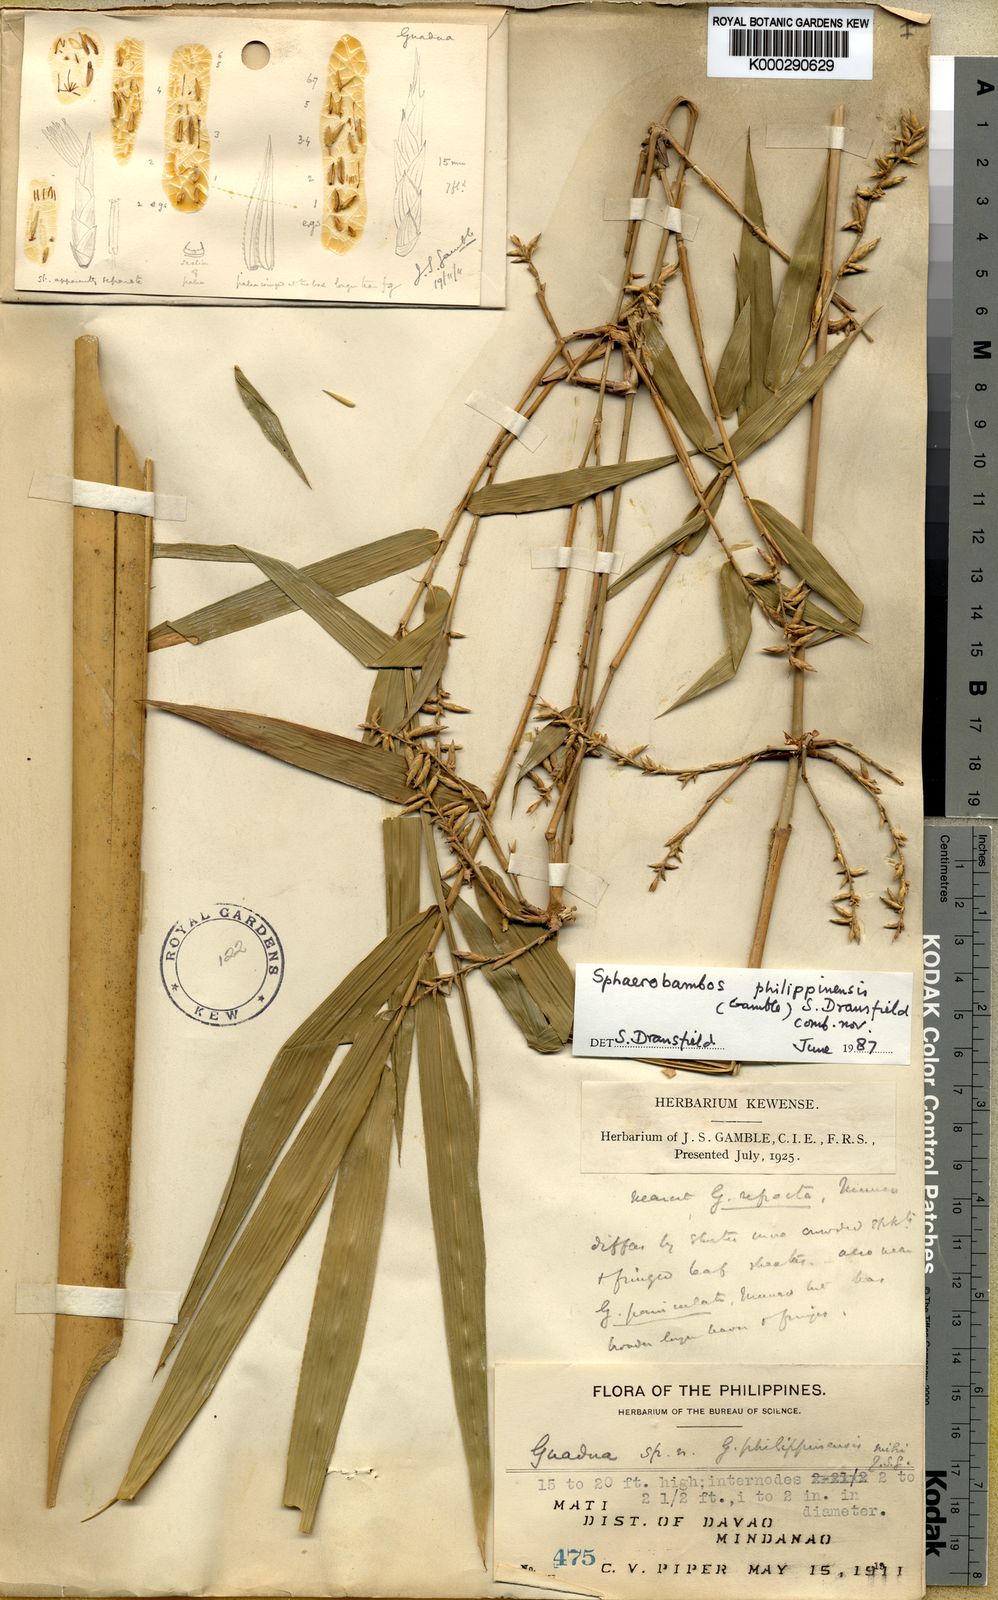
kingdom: Plantae
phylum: Tracheophyta
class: Liliopsida
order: Poales
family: Poaceae
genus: Sphaerobambos
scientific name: Sphaerobambos philippinensis
